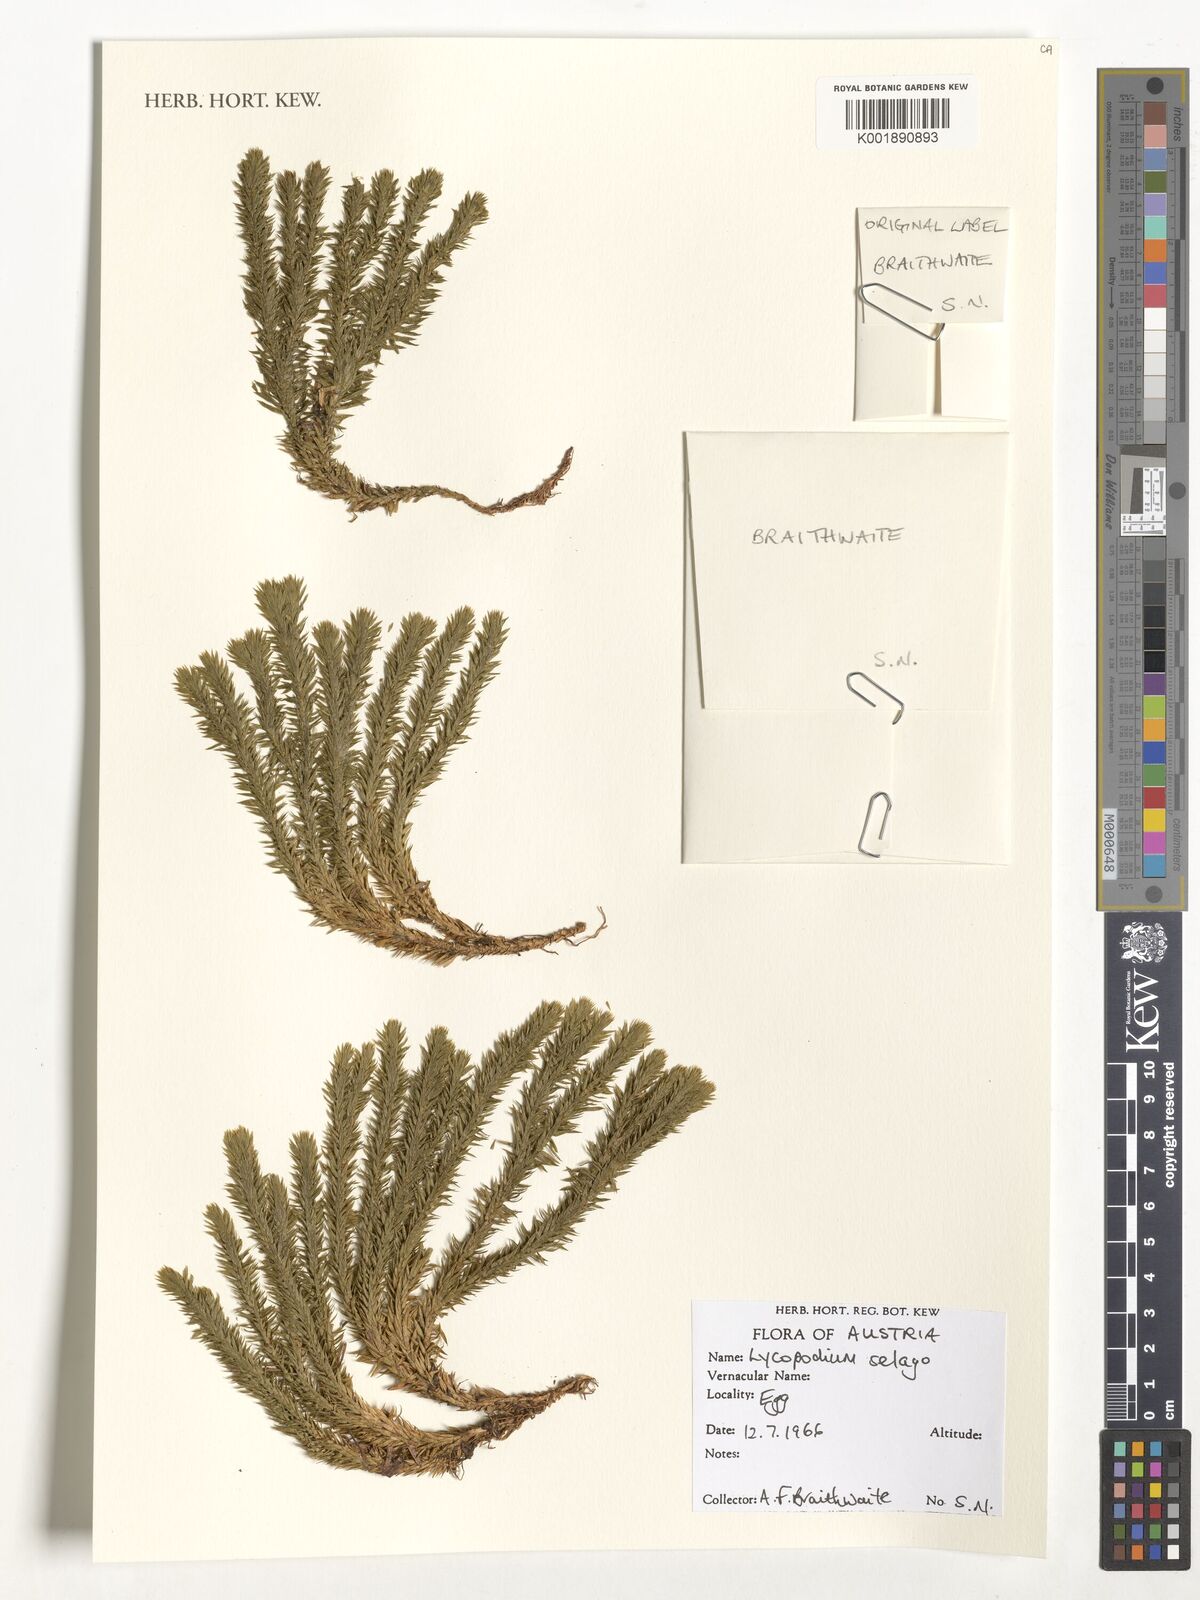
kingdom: Plantae
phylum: Tracheophyta
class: Lycopodiopsida
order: Lycopodiales
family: Lycopodiaceae
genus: Huperzia
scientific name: Huperzia selago
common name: Northern firmoss
